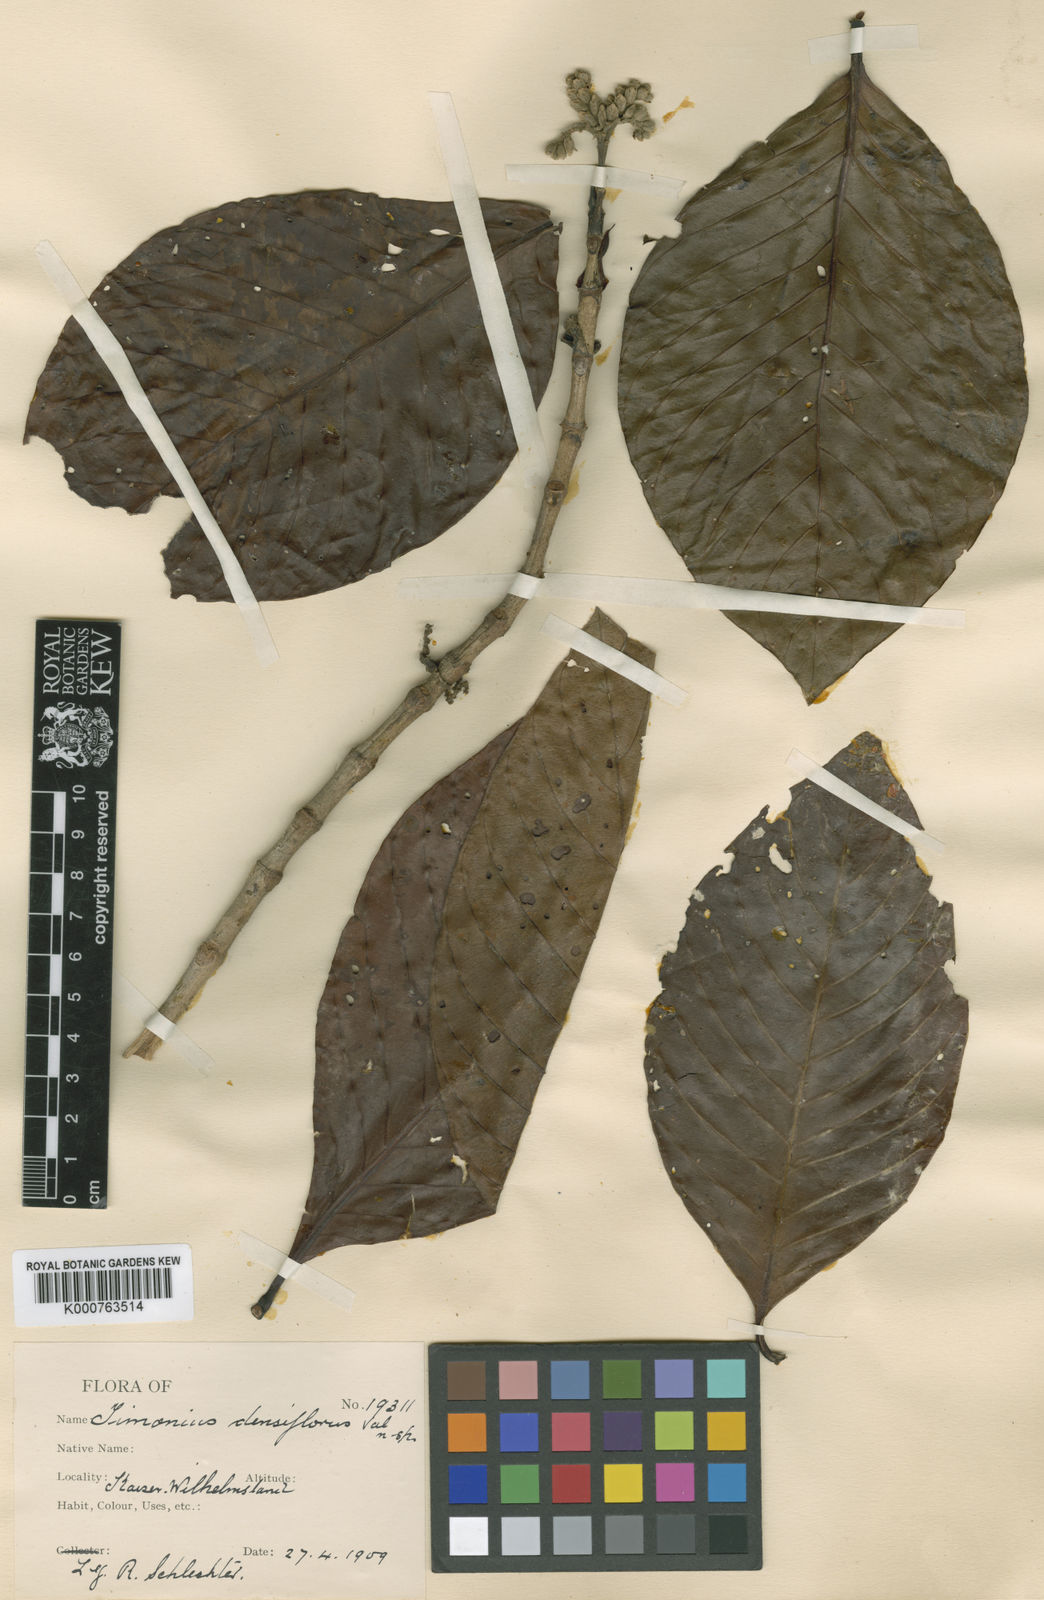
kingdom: Plantae
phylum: Tracheophyta
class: Magnoliopsida
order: Gentianales
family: Rubiaceae
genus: Timonius
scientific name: Timonius densiflorus
